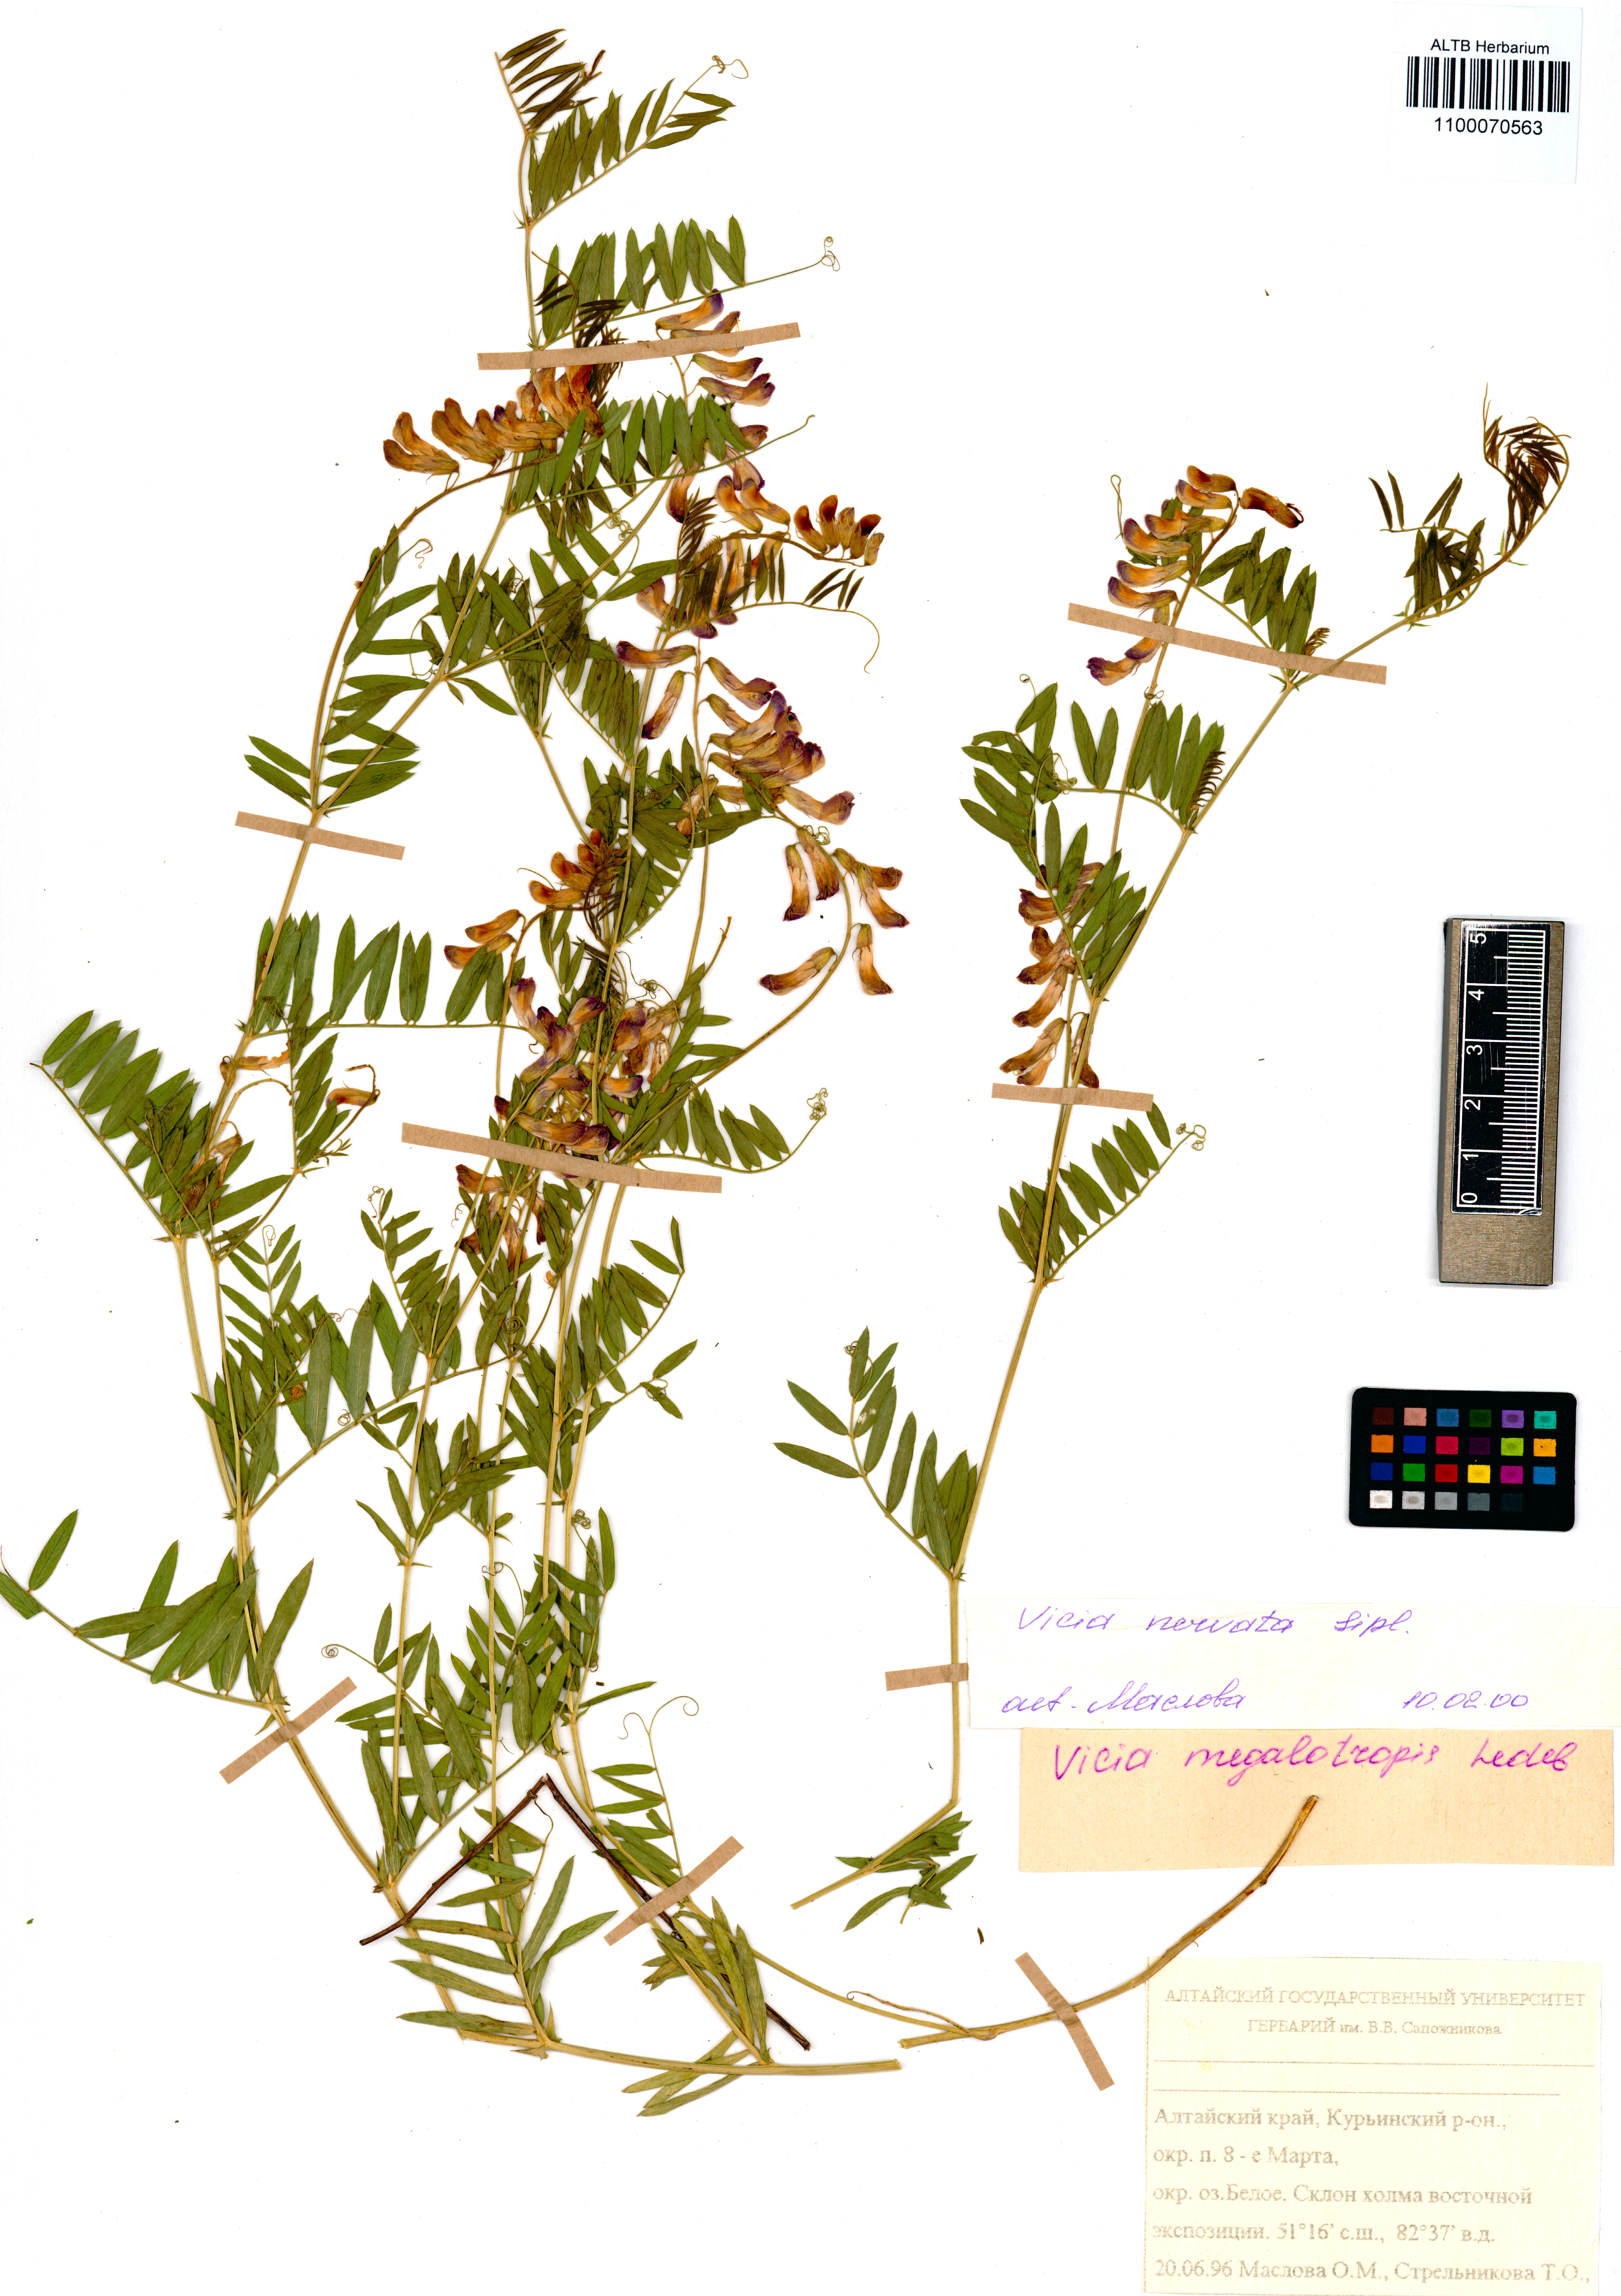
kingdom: Plantae
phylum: Tracheophyta
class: Magnoliopsida
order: Fabales
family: Fabaceae
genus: Vicia
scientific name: Vicia multicaulis
